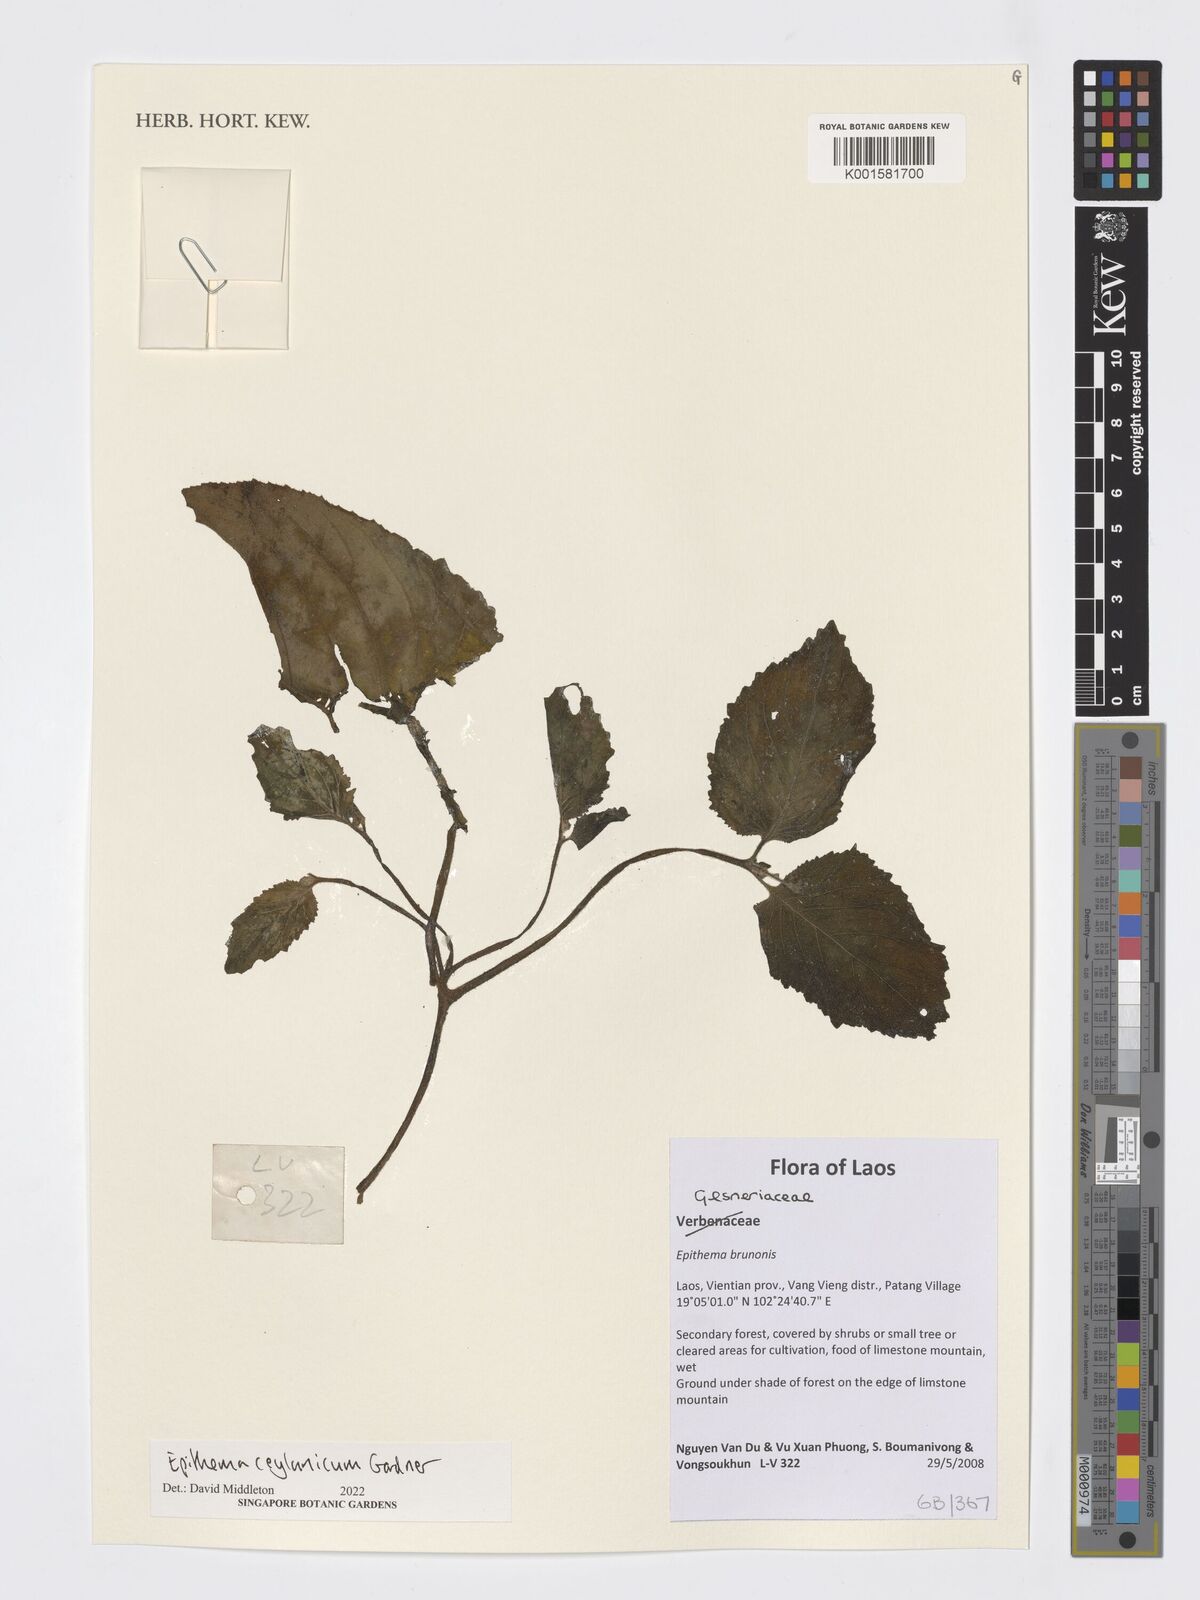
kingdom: Plantae
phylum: Tracheophyta
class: Magnoliopsida
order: Lamiales
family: Gesneriaceae
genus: Epithema
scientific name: Epithema ceylanicum
